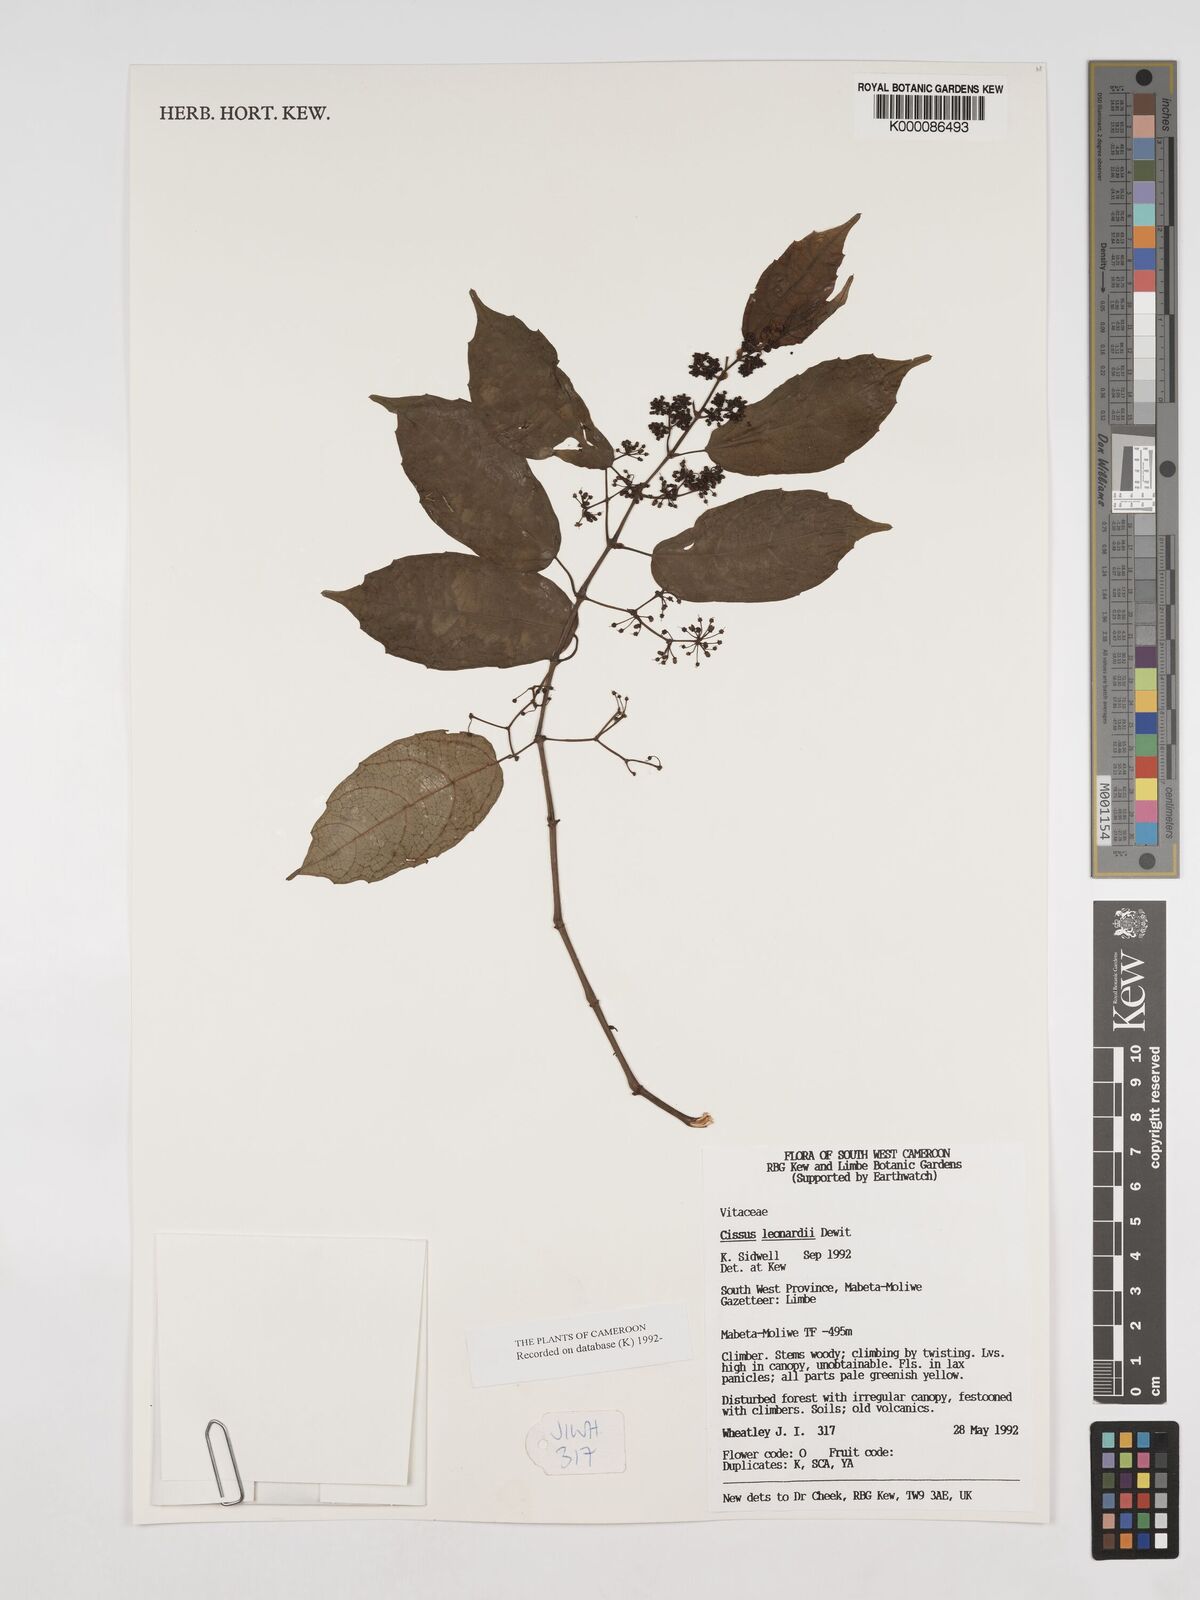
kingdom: Plantae
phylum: Tracheophyta
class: Magnoliopsida
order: Vitales
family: Vitaceae
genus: Cissus
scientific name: Cissus leonardii
